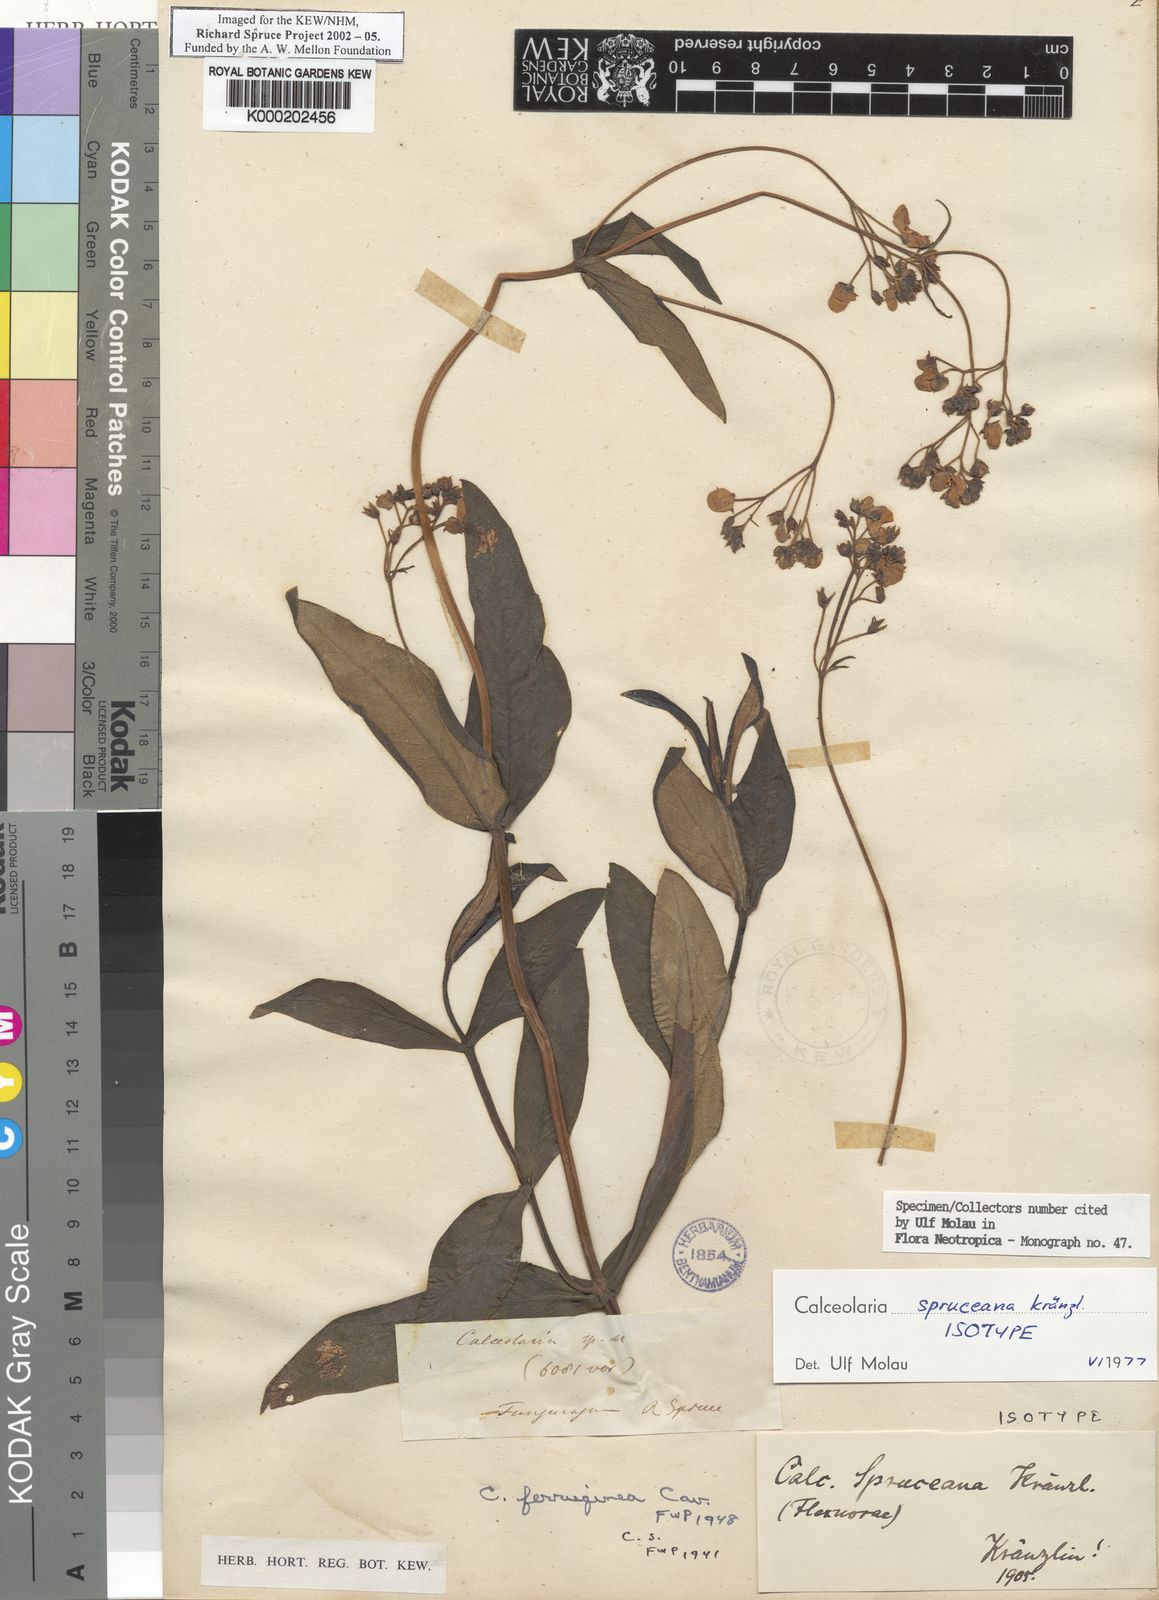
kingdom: Plantae
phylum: Tracheophyta
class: Magnoliopsida
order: Lamiales
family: Calceolariaceae
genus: Calceolaria
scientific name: Calceolaria spruceana
